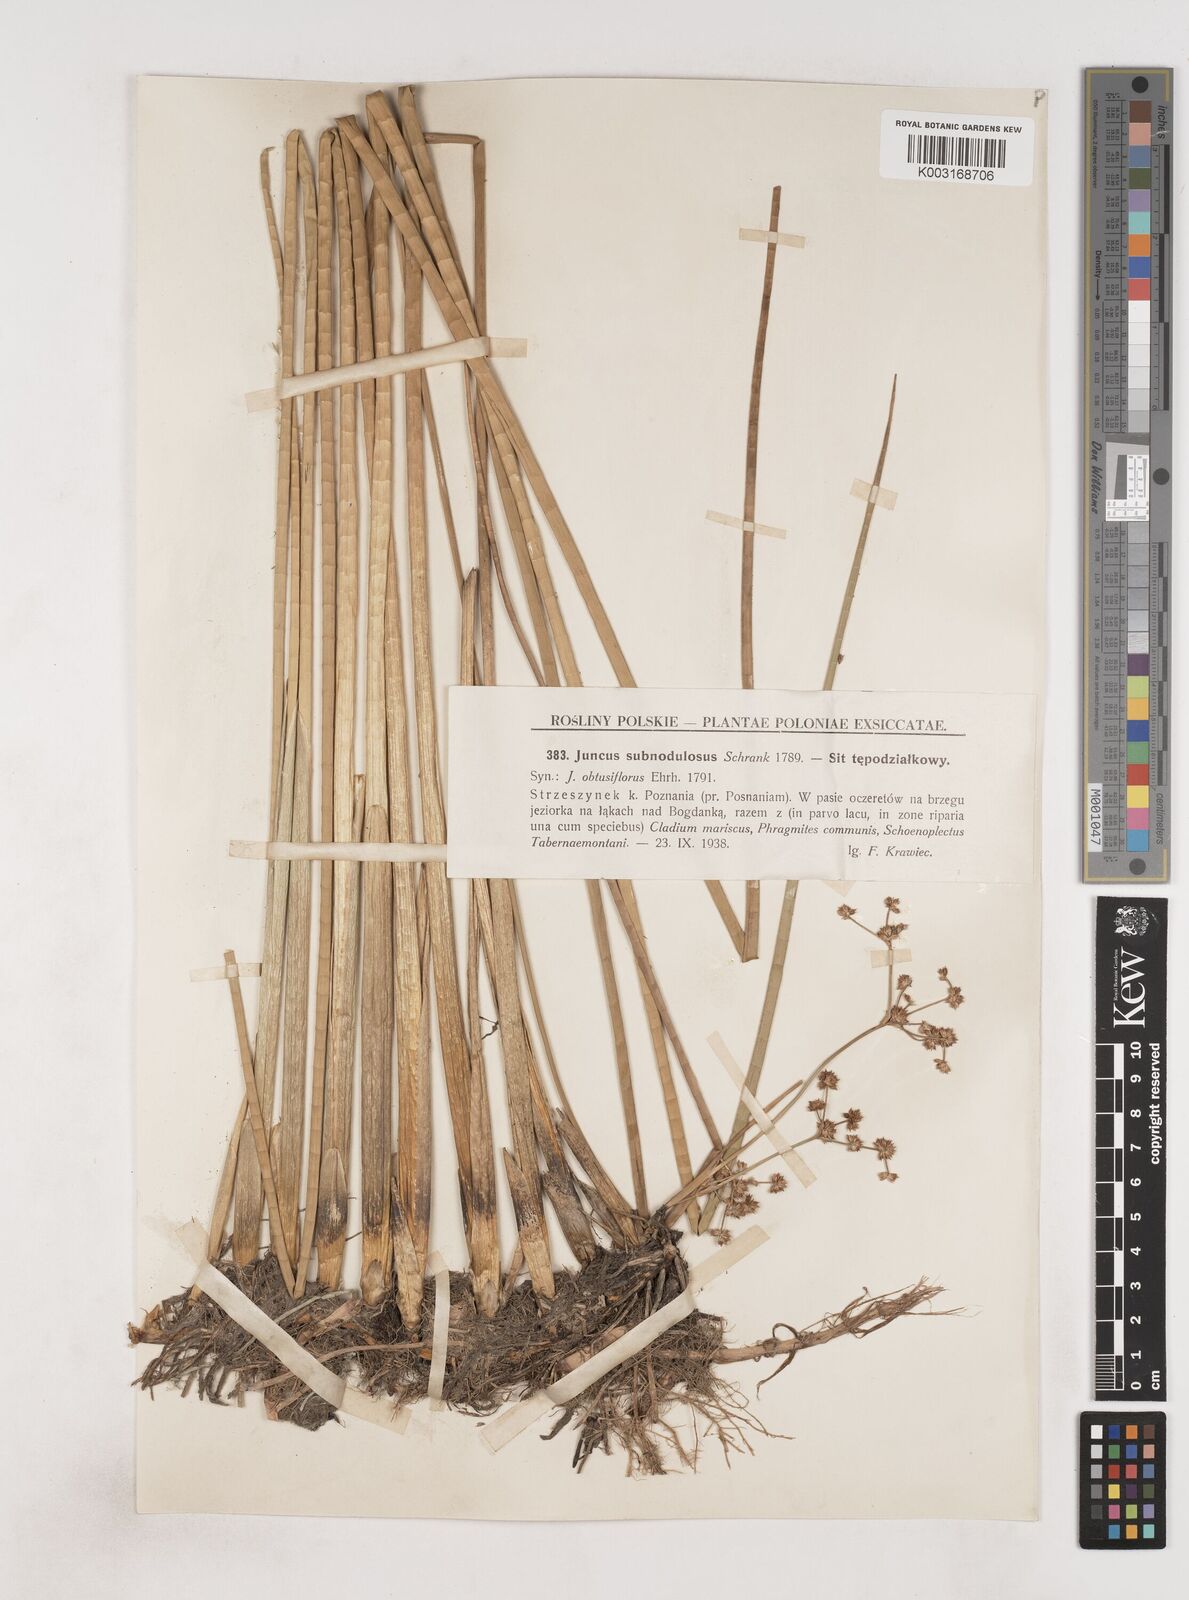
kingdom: Plantae
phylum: Tracheophyta
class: Liliopsida
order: Poales
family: Juncaceae
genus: Juncus
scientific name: Juncus subnodulosus
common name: Blunt-flowered rush
